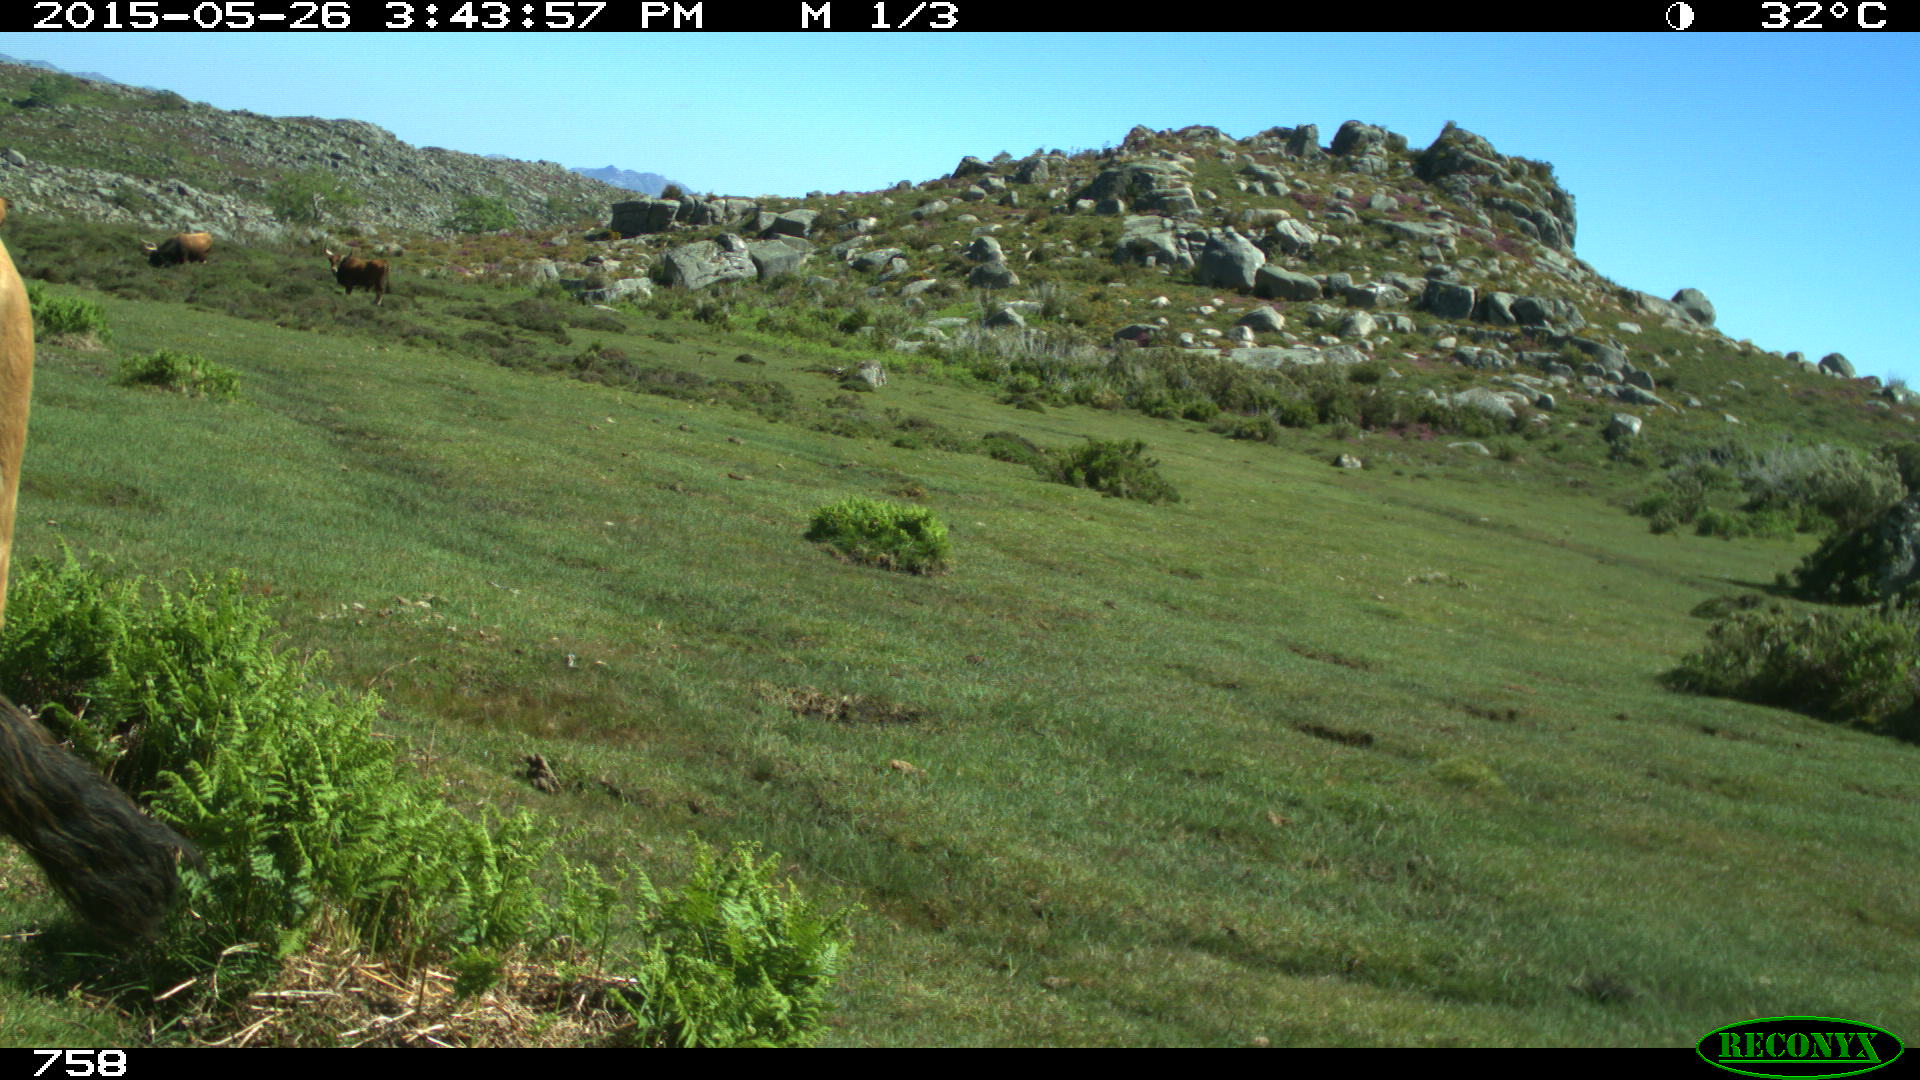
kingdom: Animalia
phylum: Chordata
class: Mammalia
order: Artiodactyla
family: Bovidae
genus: Bos
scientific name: Bos taurus
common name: Domesticated cattle
